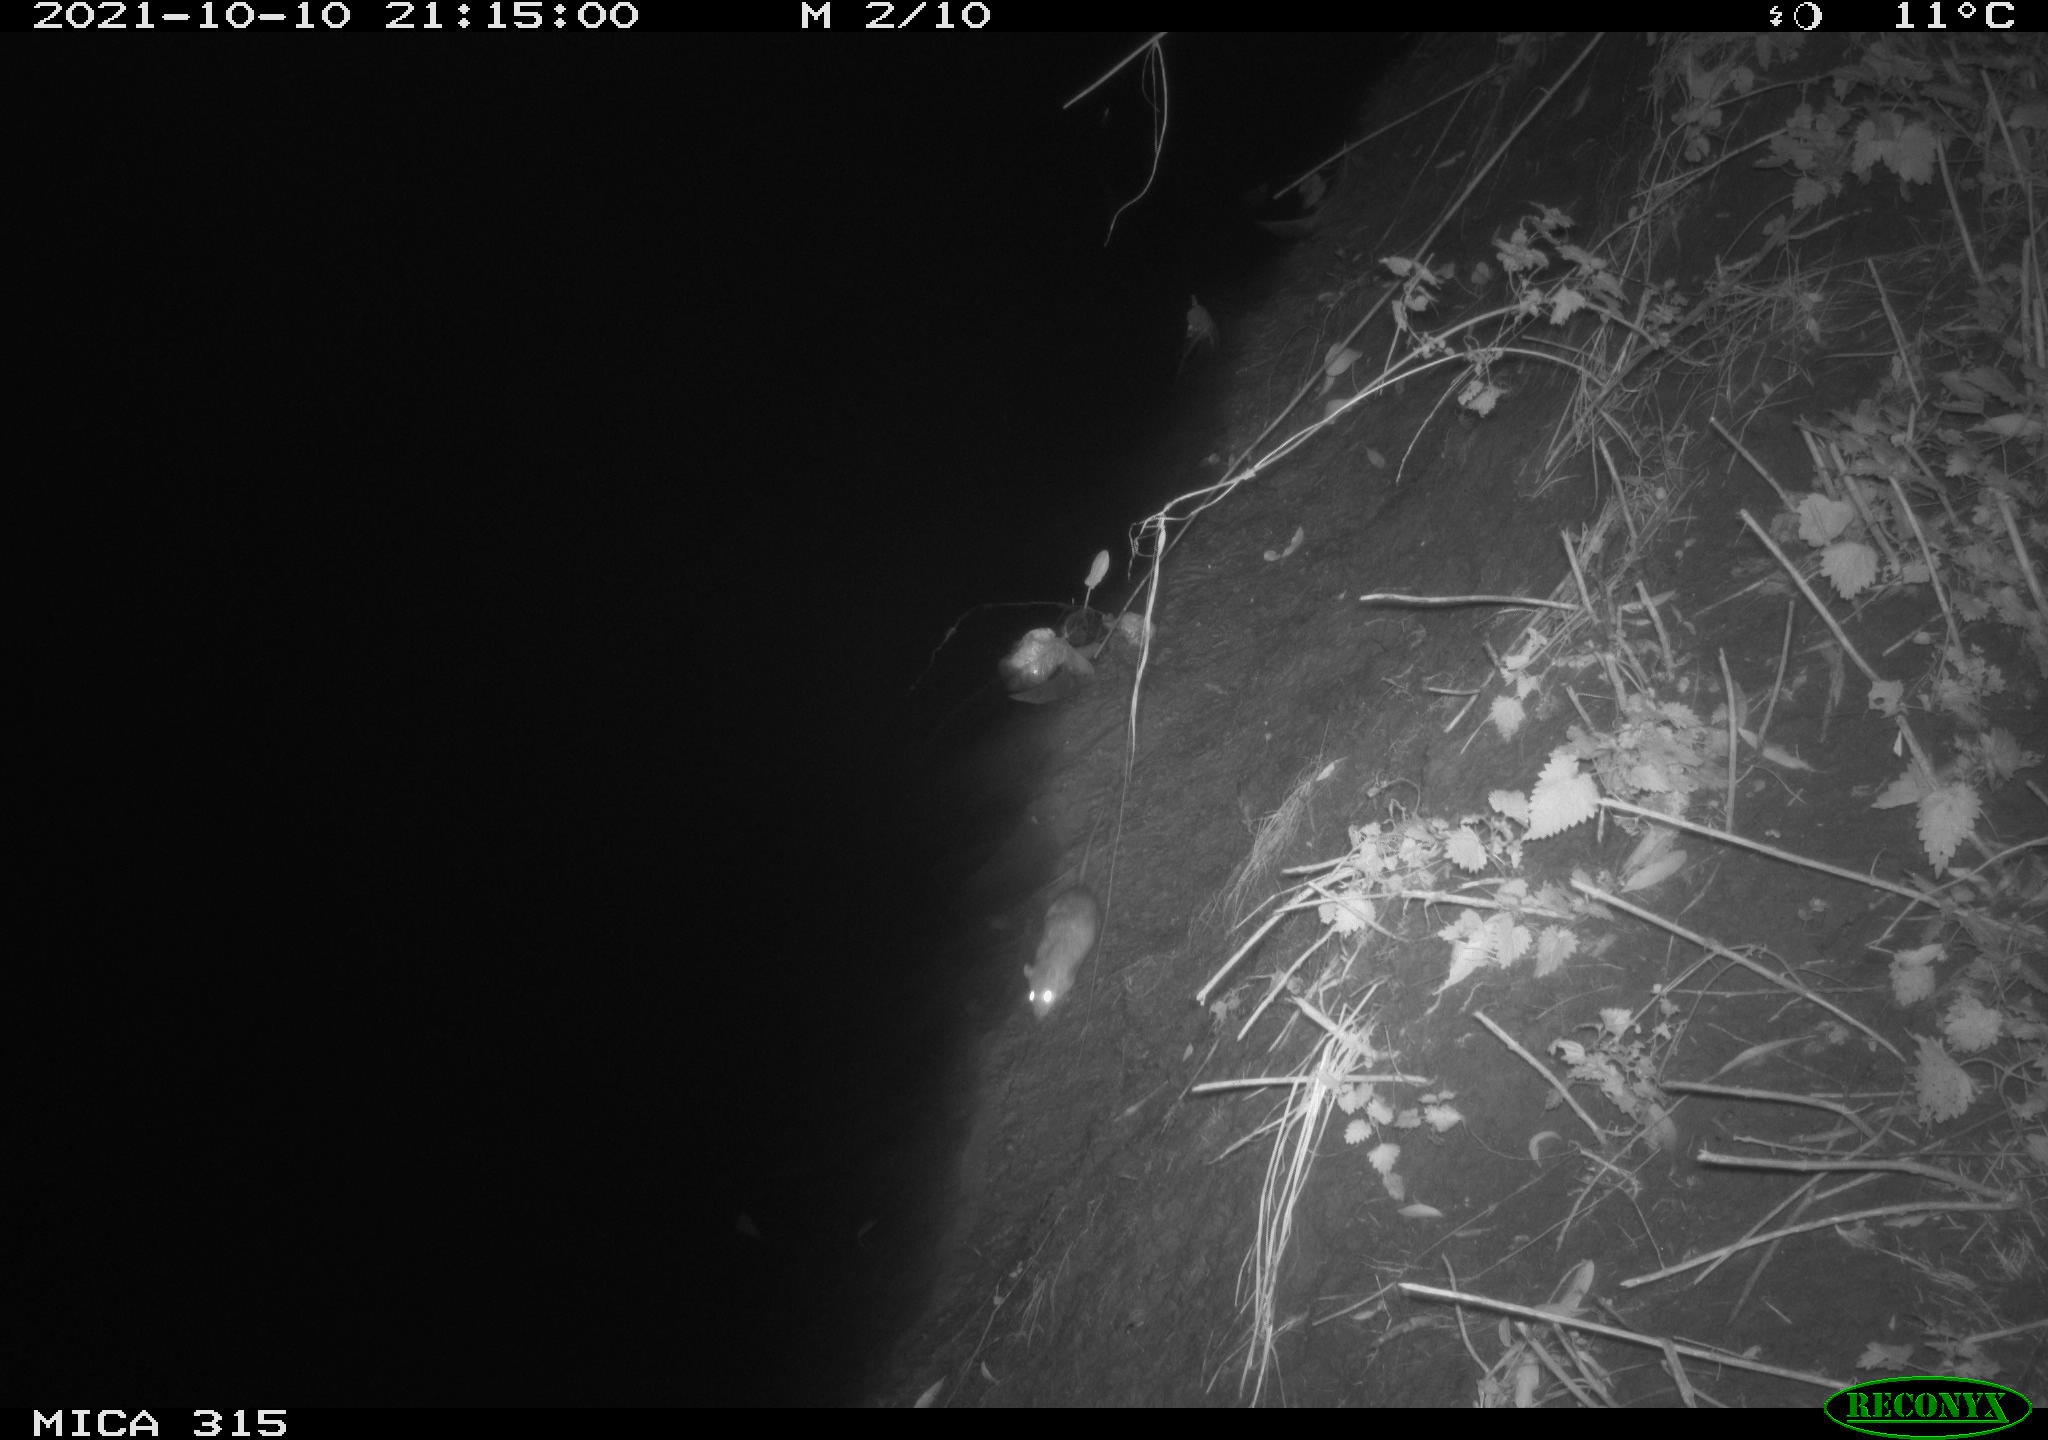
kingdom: Animalia
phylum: Chordata
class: Mammalia
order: Rodentia
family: Muridae
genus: Rattus
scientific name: Rattus norvegicus
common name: Brown rat
